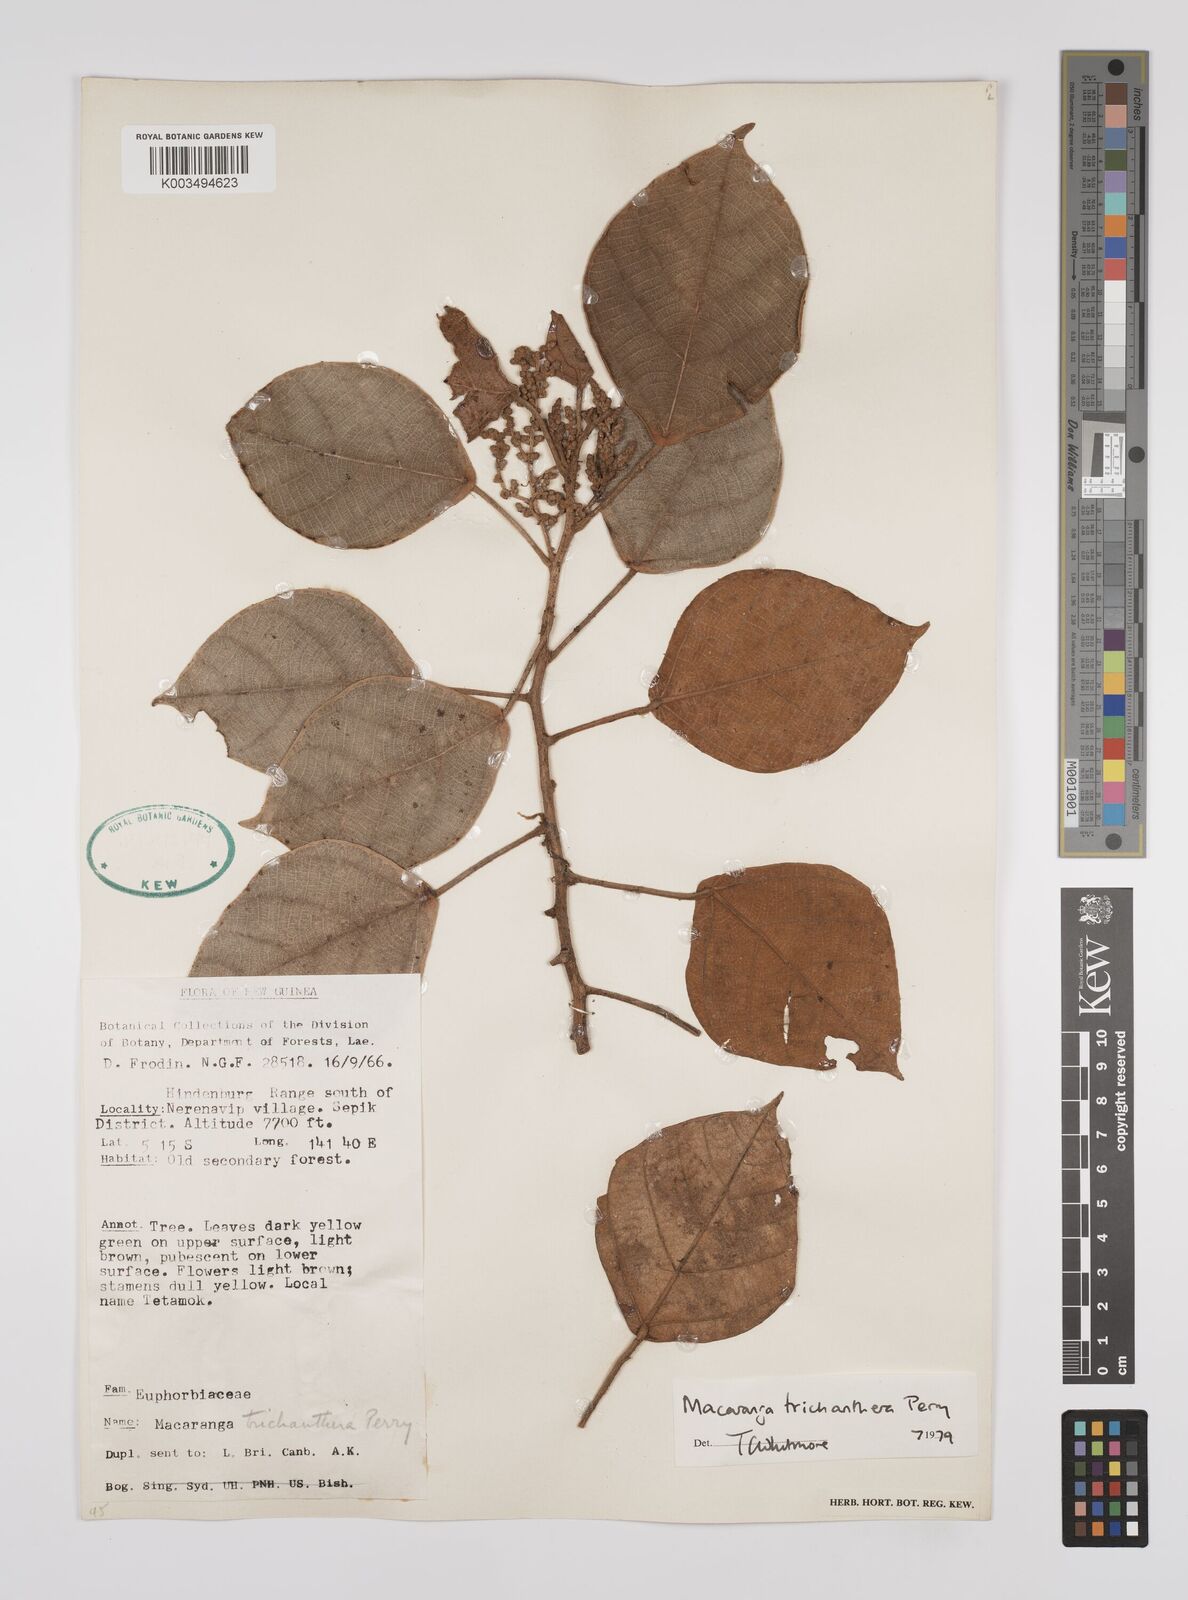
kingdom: Plantae
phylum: Tracheophyta
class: Magnoliopsida
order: Malpighiales
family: Euphorbiaceae
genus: Macaranga
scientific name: Macaranga trichanthera
